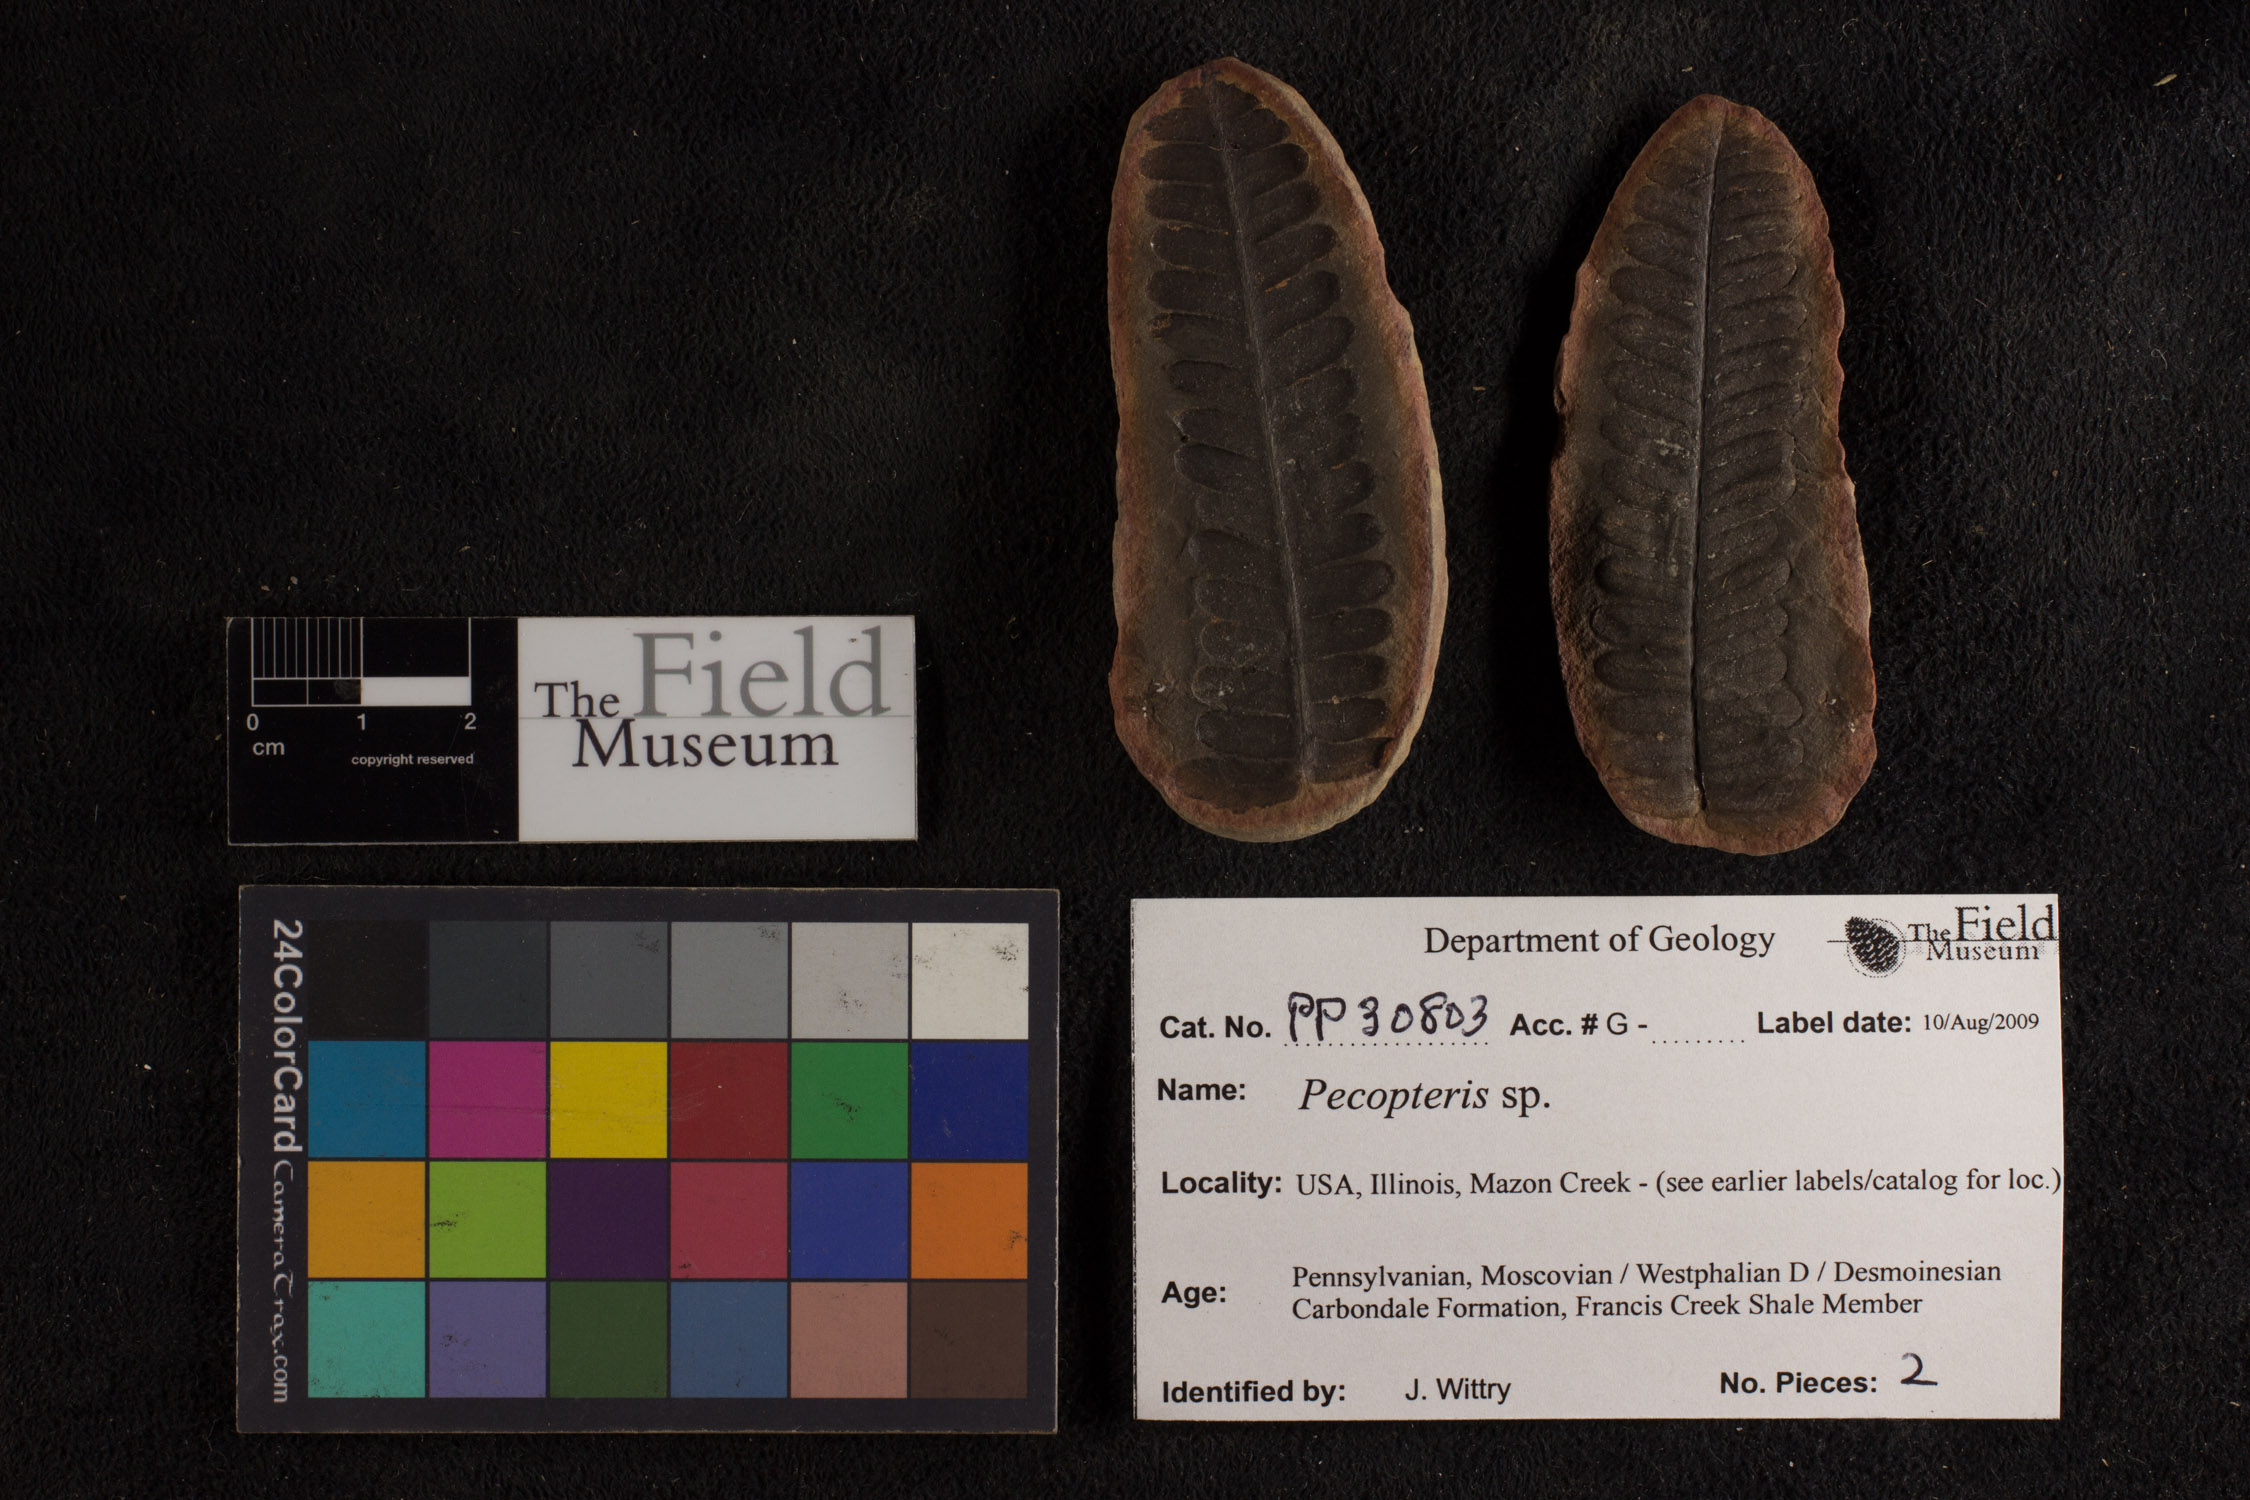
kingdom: Plantae
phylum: Tracheophyta
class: Polypodiopsida
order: Marattiales
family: Asterothecaceae
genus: Pecopteris
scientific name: Pecopteris
